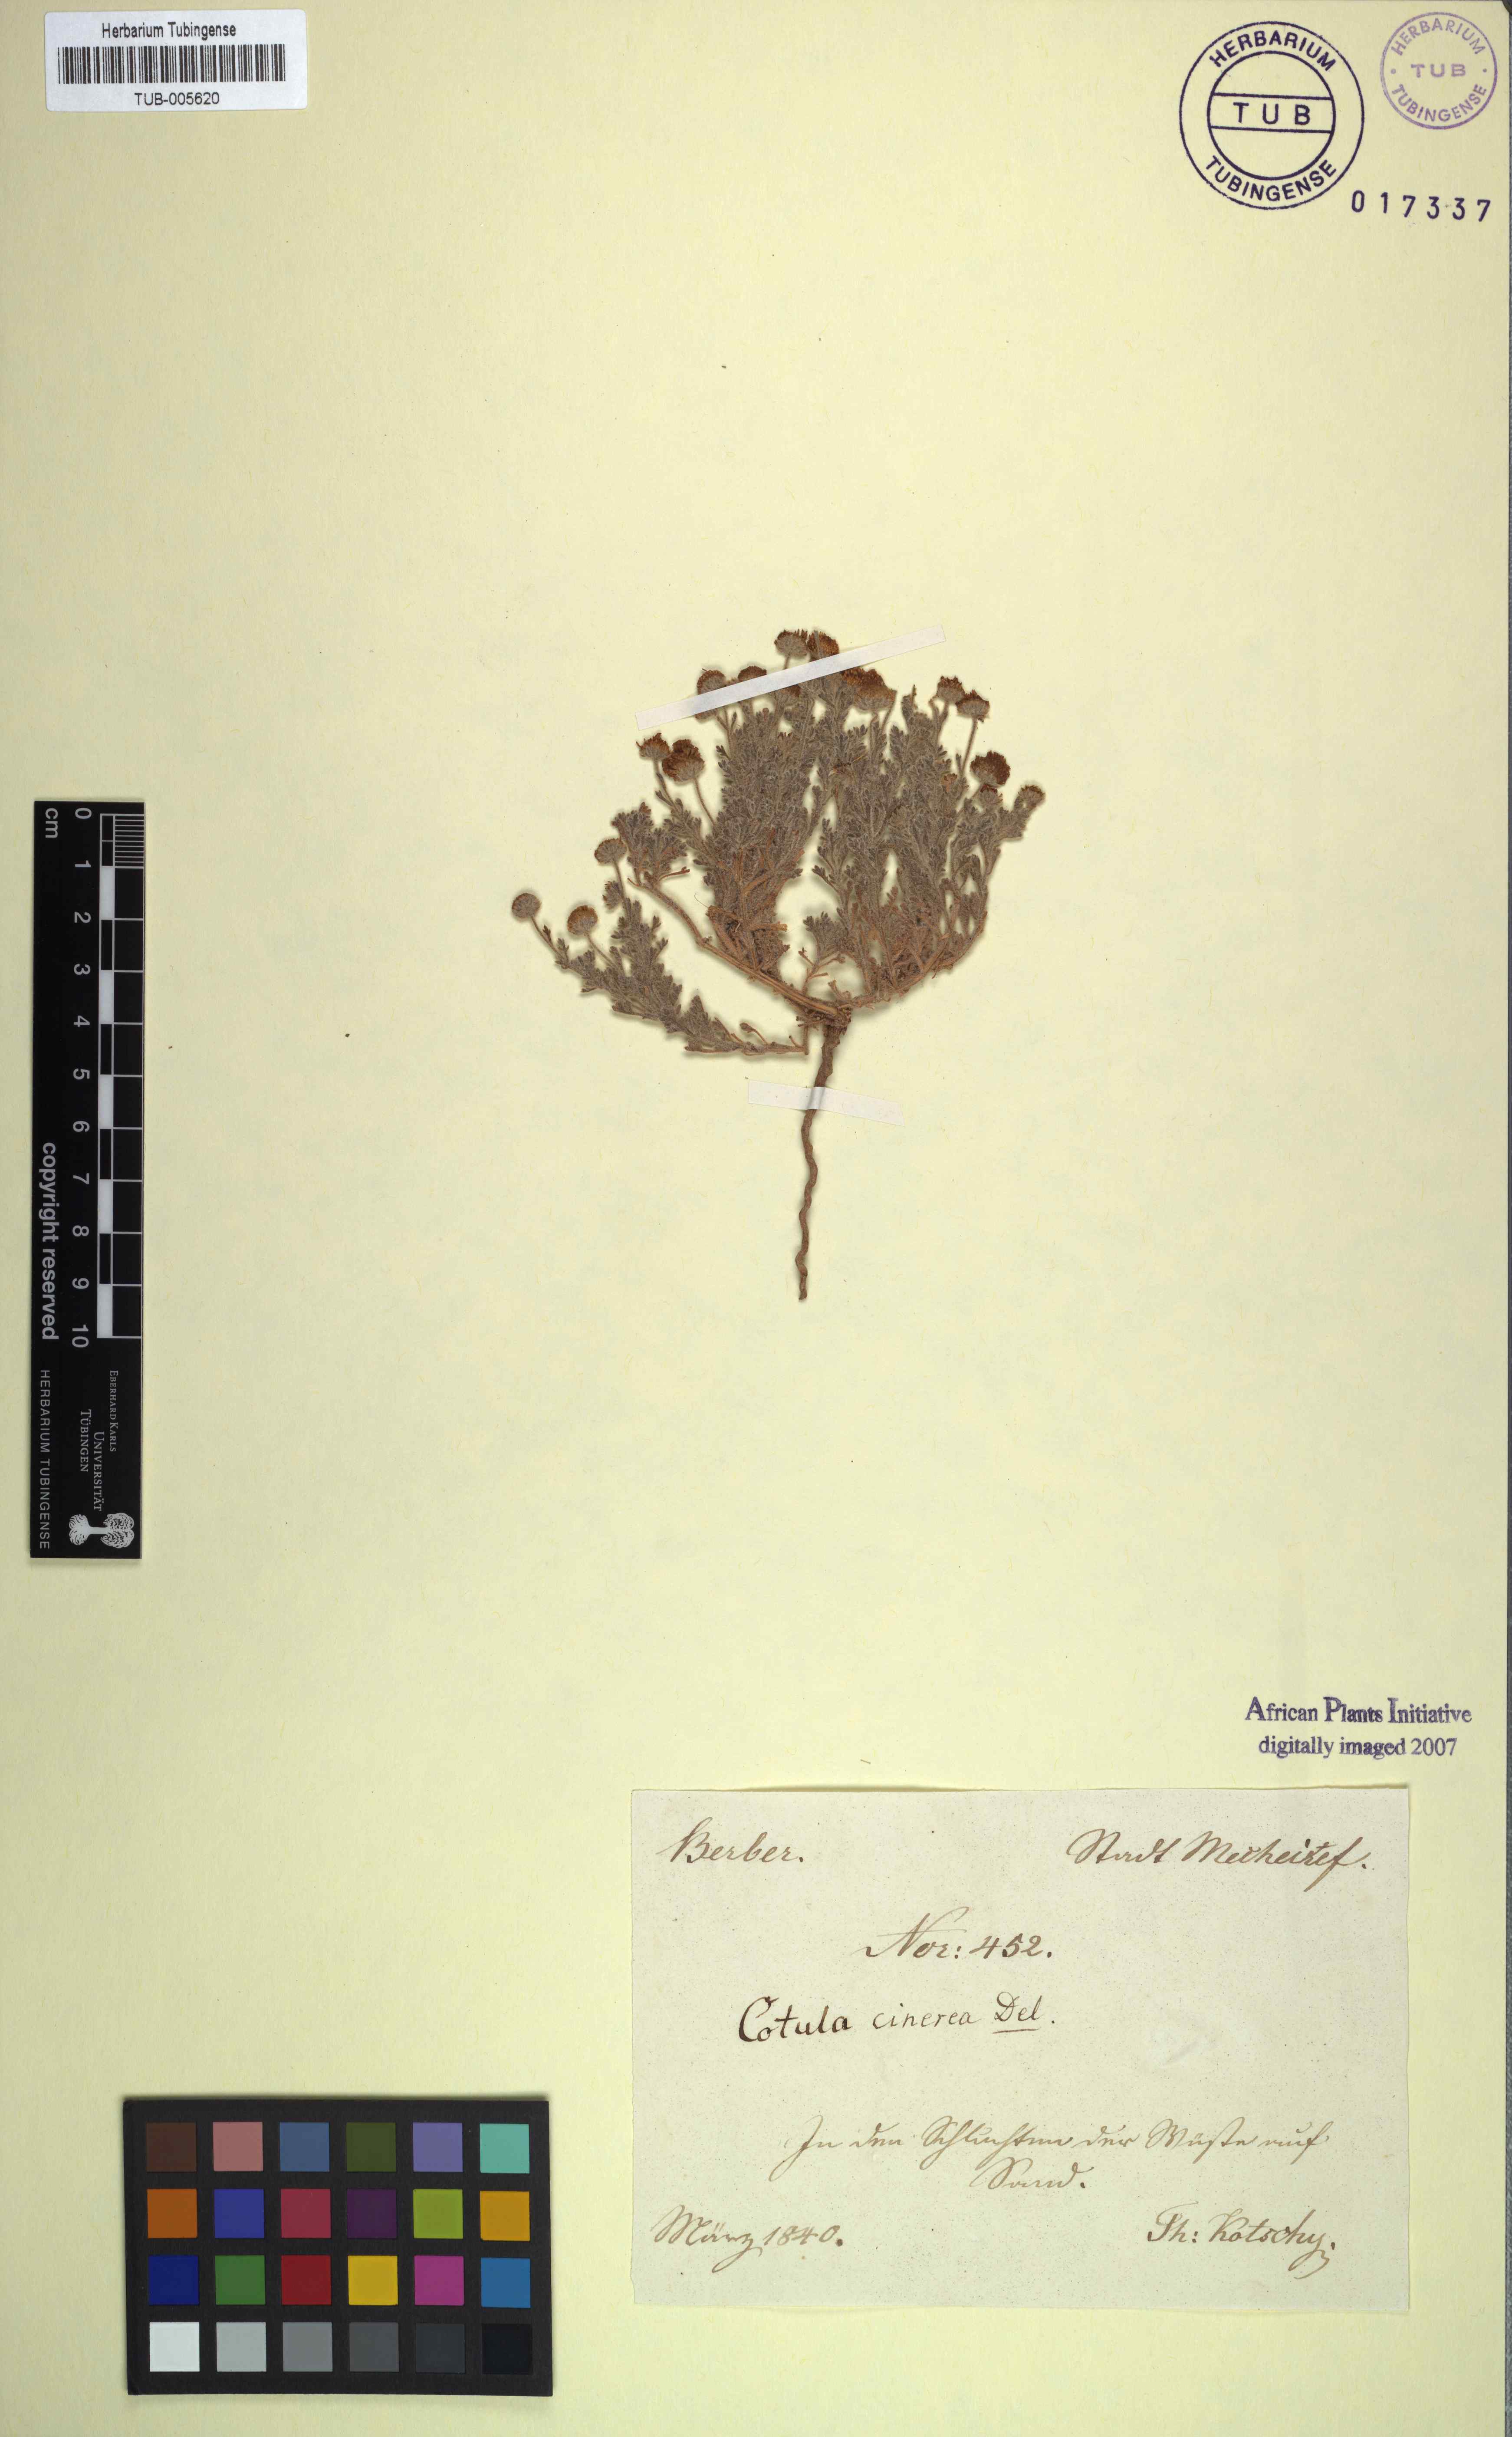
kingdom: Plantae
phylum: Tracheophyta
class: Magnoliopsida
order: Asterales
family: Asteraceae
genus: Brocchia
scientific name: Brocchia cinerea
